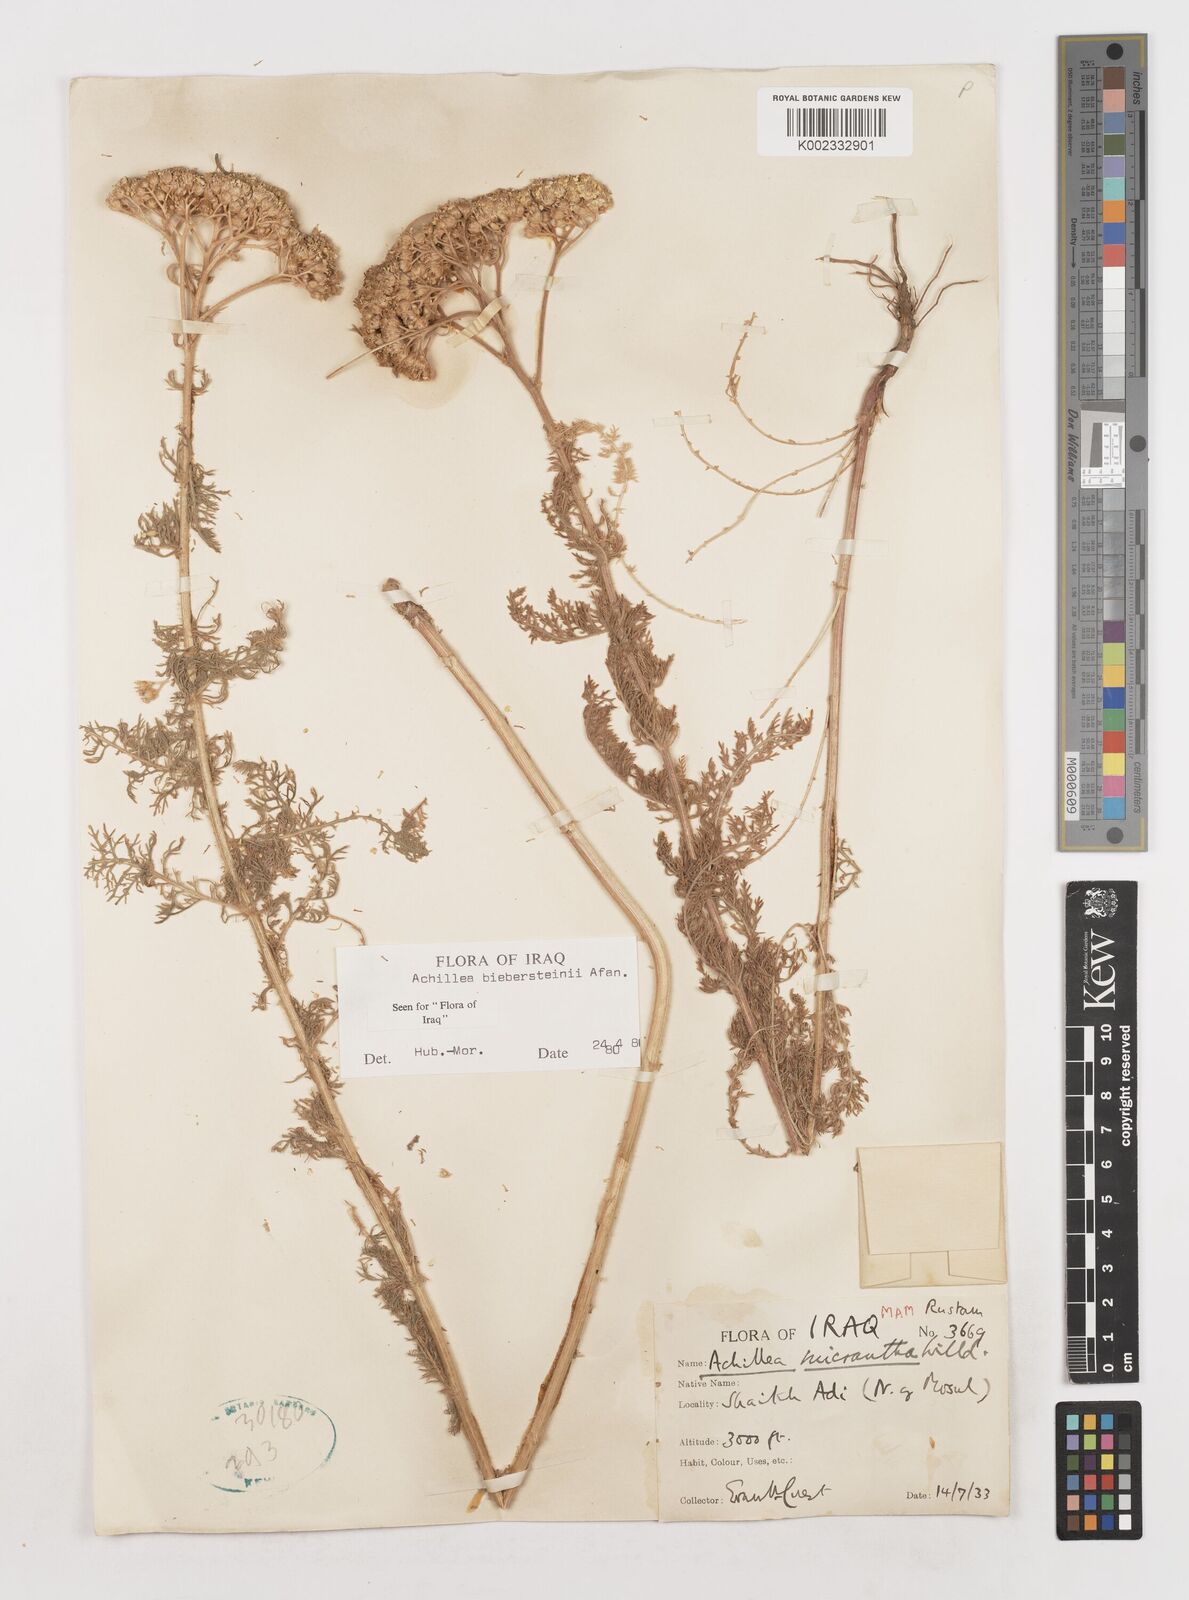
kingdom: Plantae
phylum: Tracheophyta
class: Magnoliopsida
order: Asterales
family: Asteraceae
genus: Achillea
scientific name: Achillea arabica
